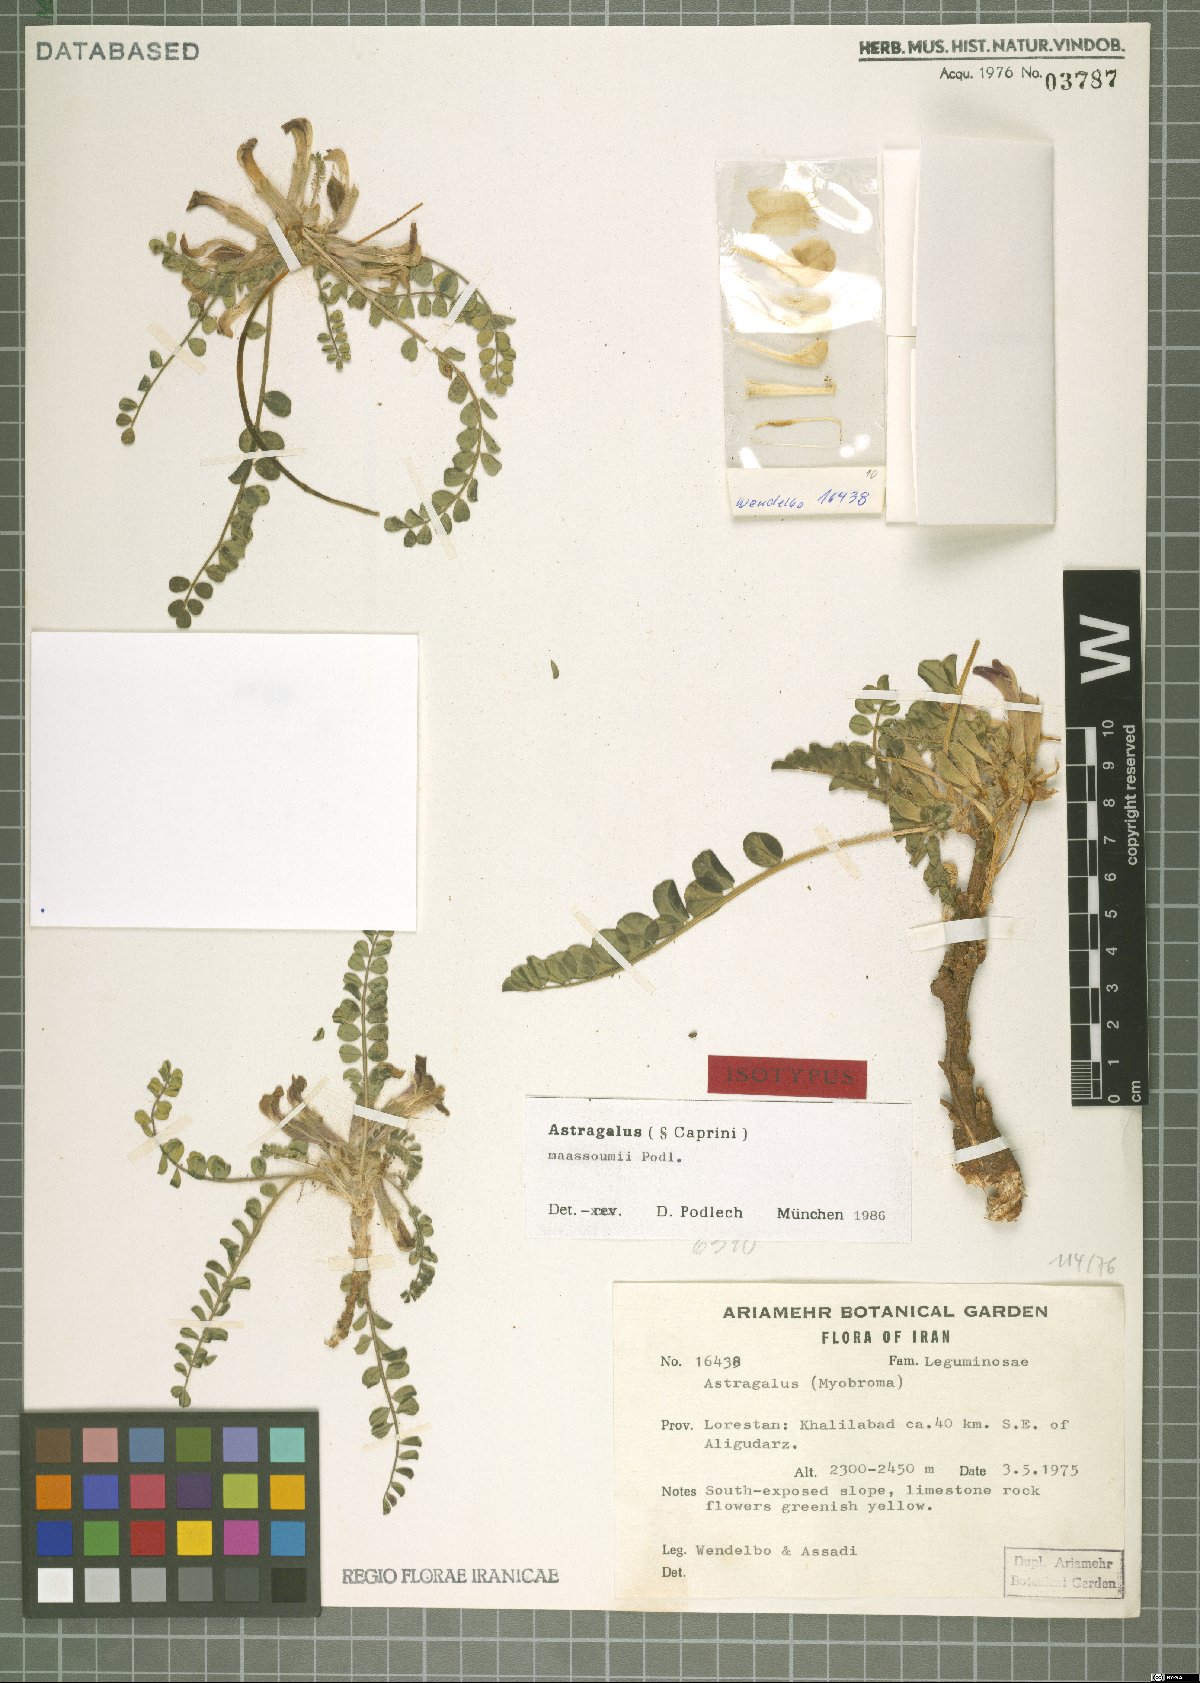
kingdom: Plantae
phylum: Tracheophyta
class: Magnoliopsida
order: Fabales
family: Fabaceae
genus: Astragalus
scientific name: Astragalus maassoumii
